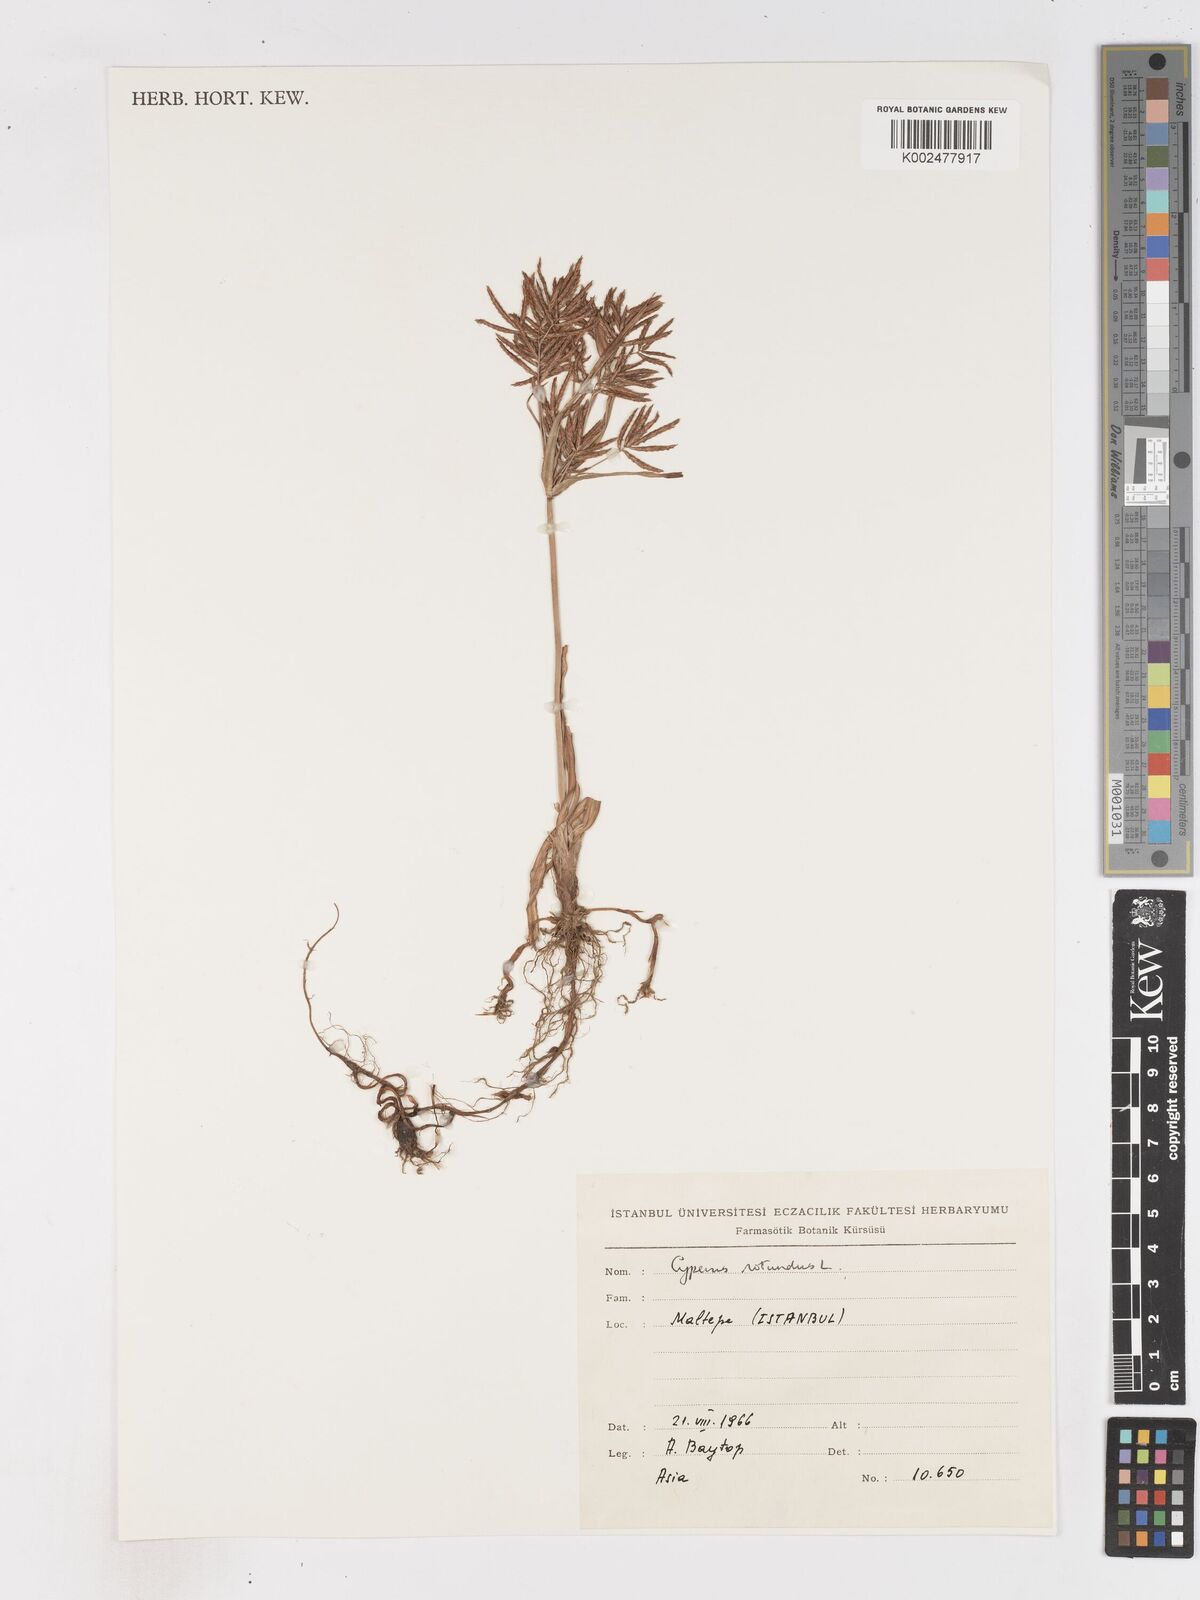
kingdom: Plantae
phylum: Tracheophyta
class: Liliopsida
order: Poales
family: Cyperaceae
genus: Cyperus
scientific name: Cyperus rotundus
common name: Nutgrass
